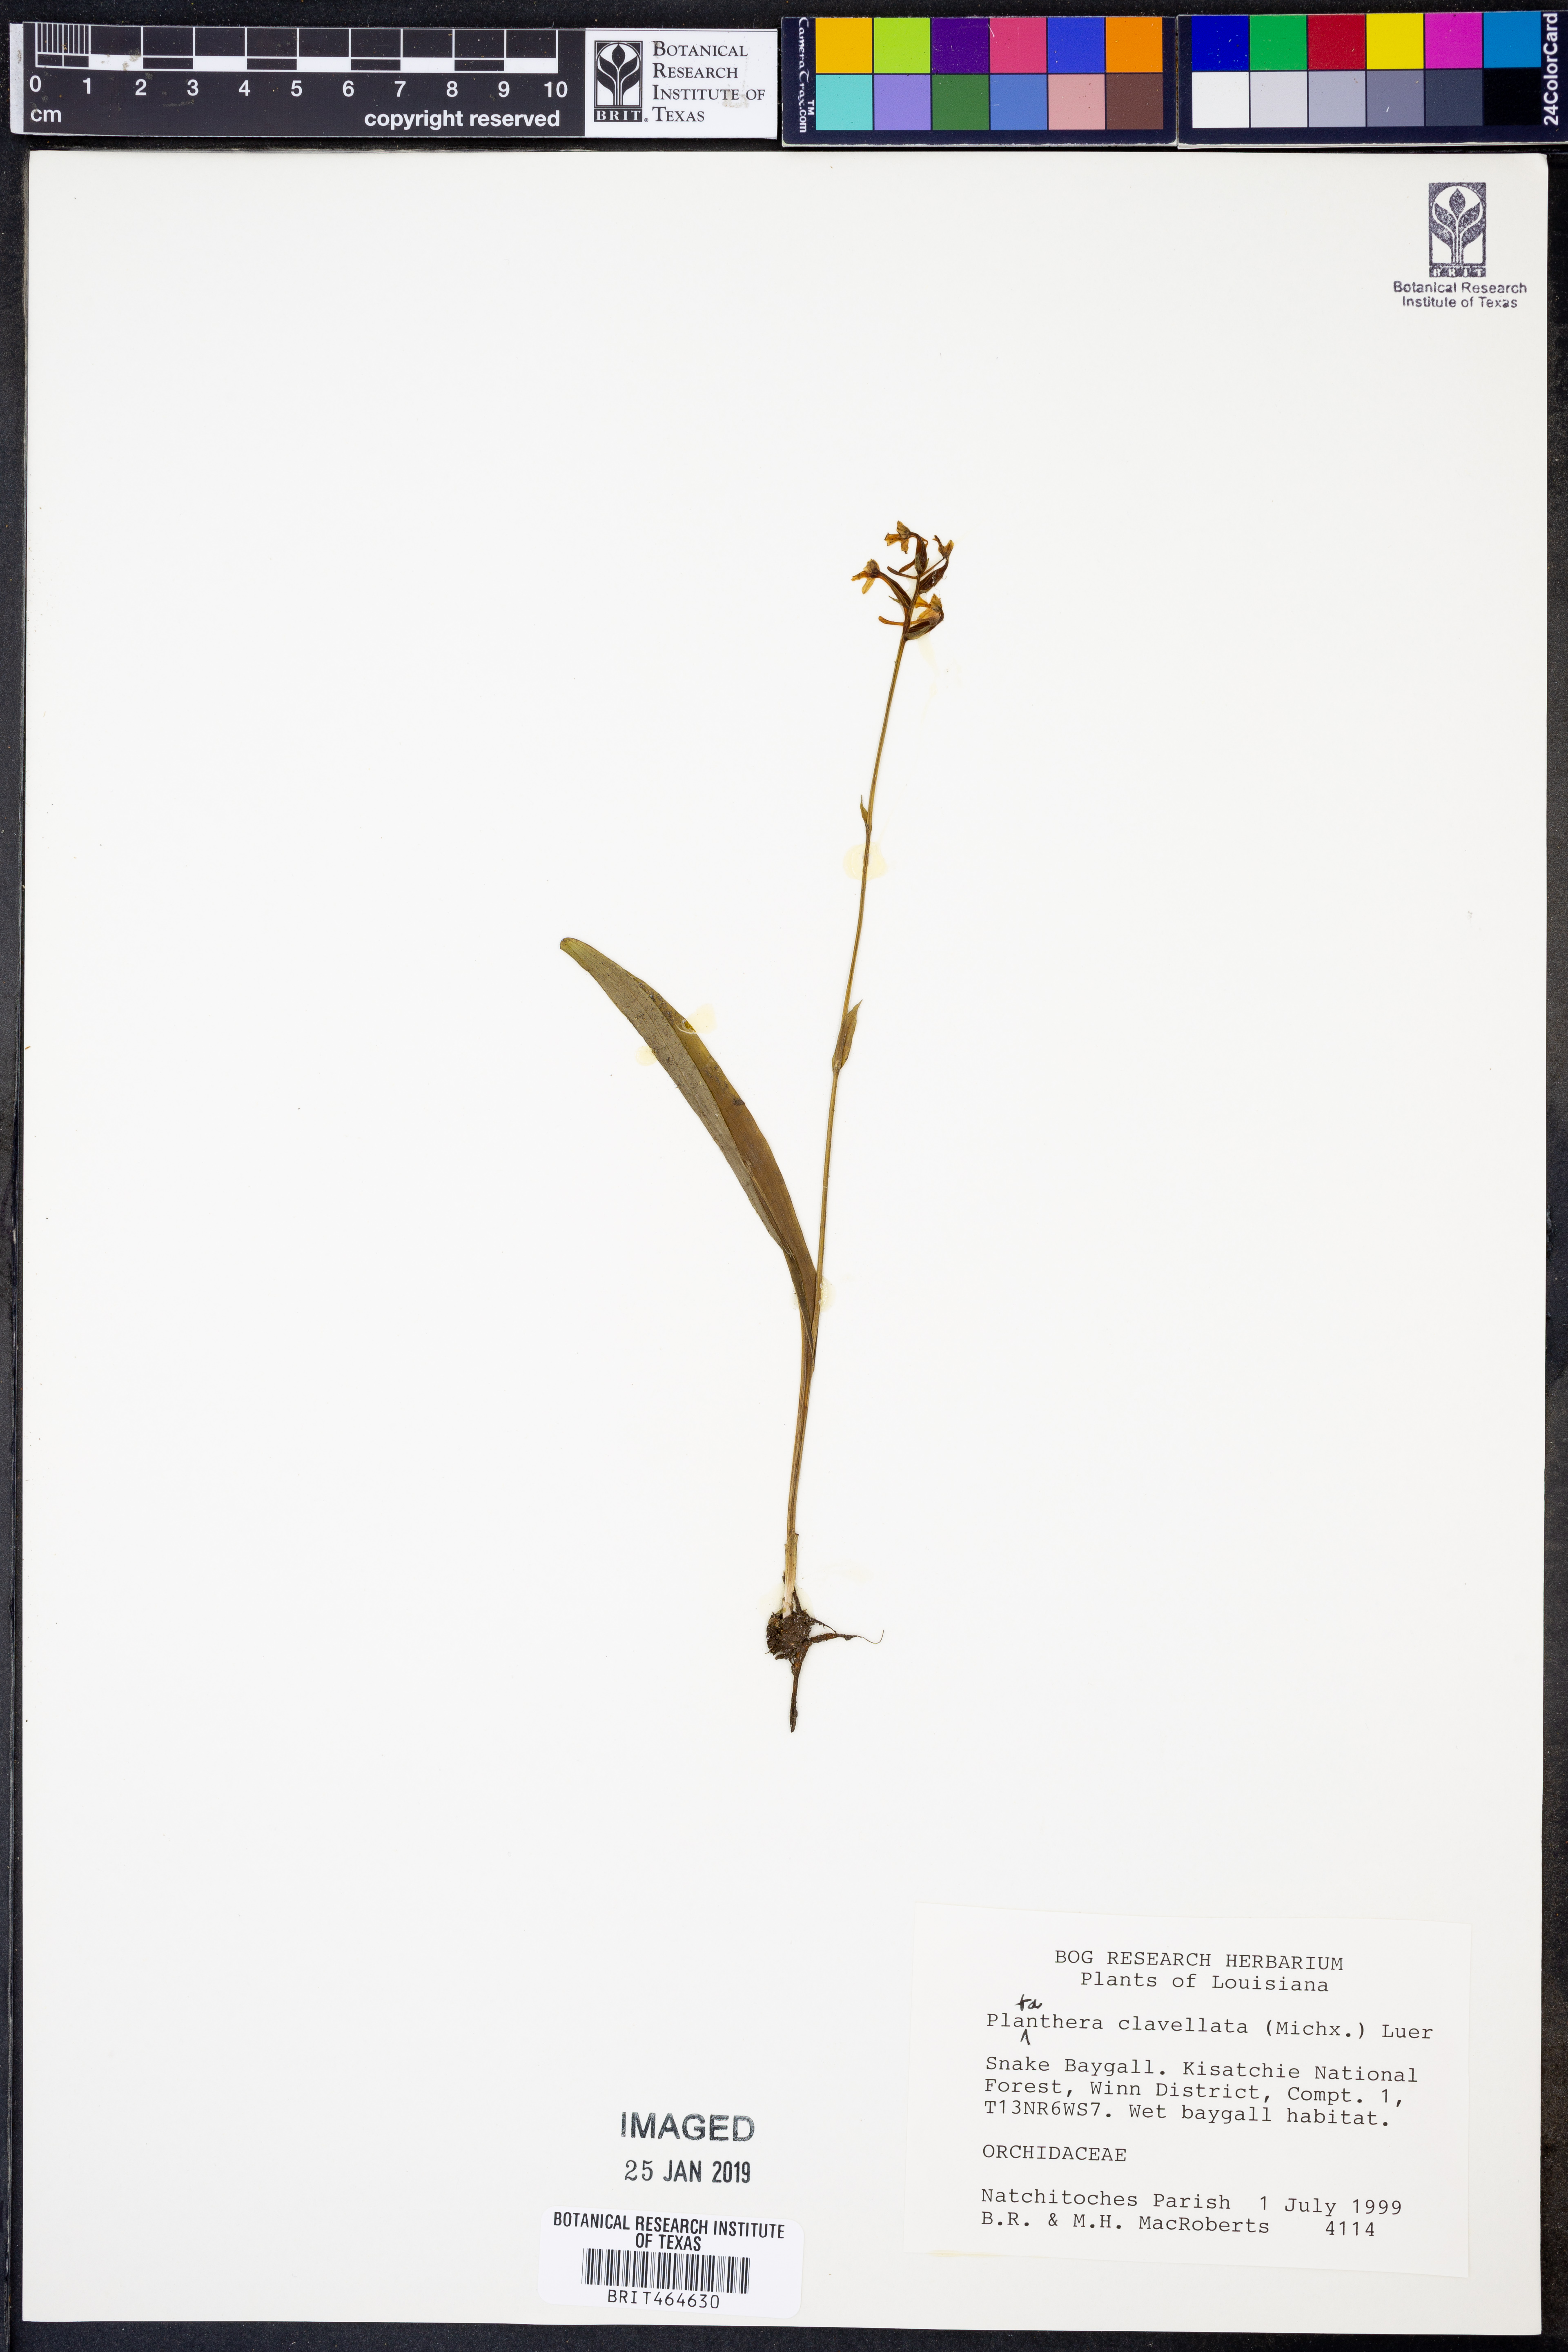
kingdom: Plantae
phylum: Tracheophyta
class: Liliopsida
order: Asparagales
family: Orchidaceae
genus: Platanthera
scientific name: Platanthera clavellata
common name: Club-spur orchid
